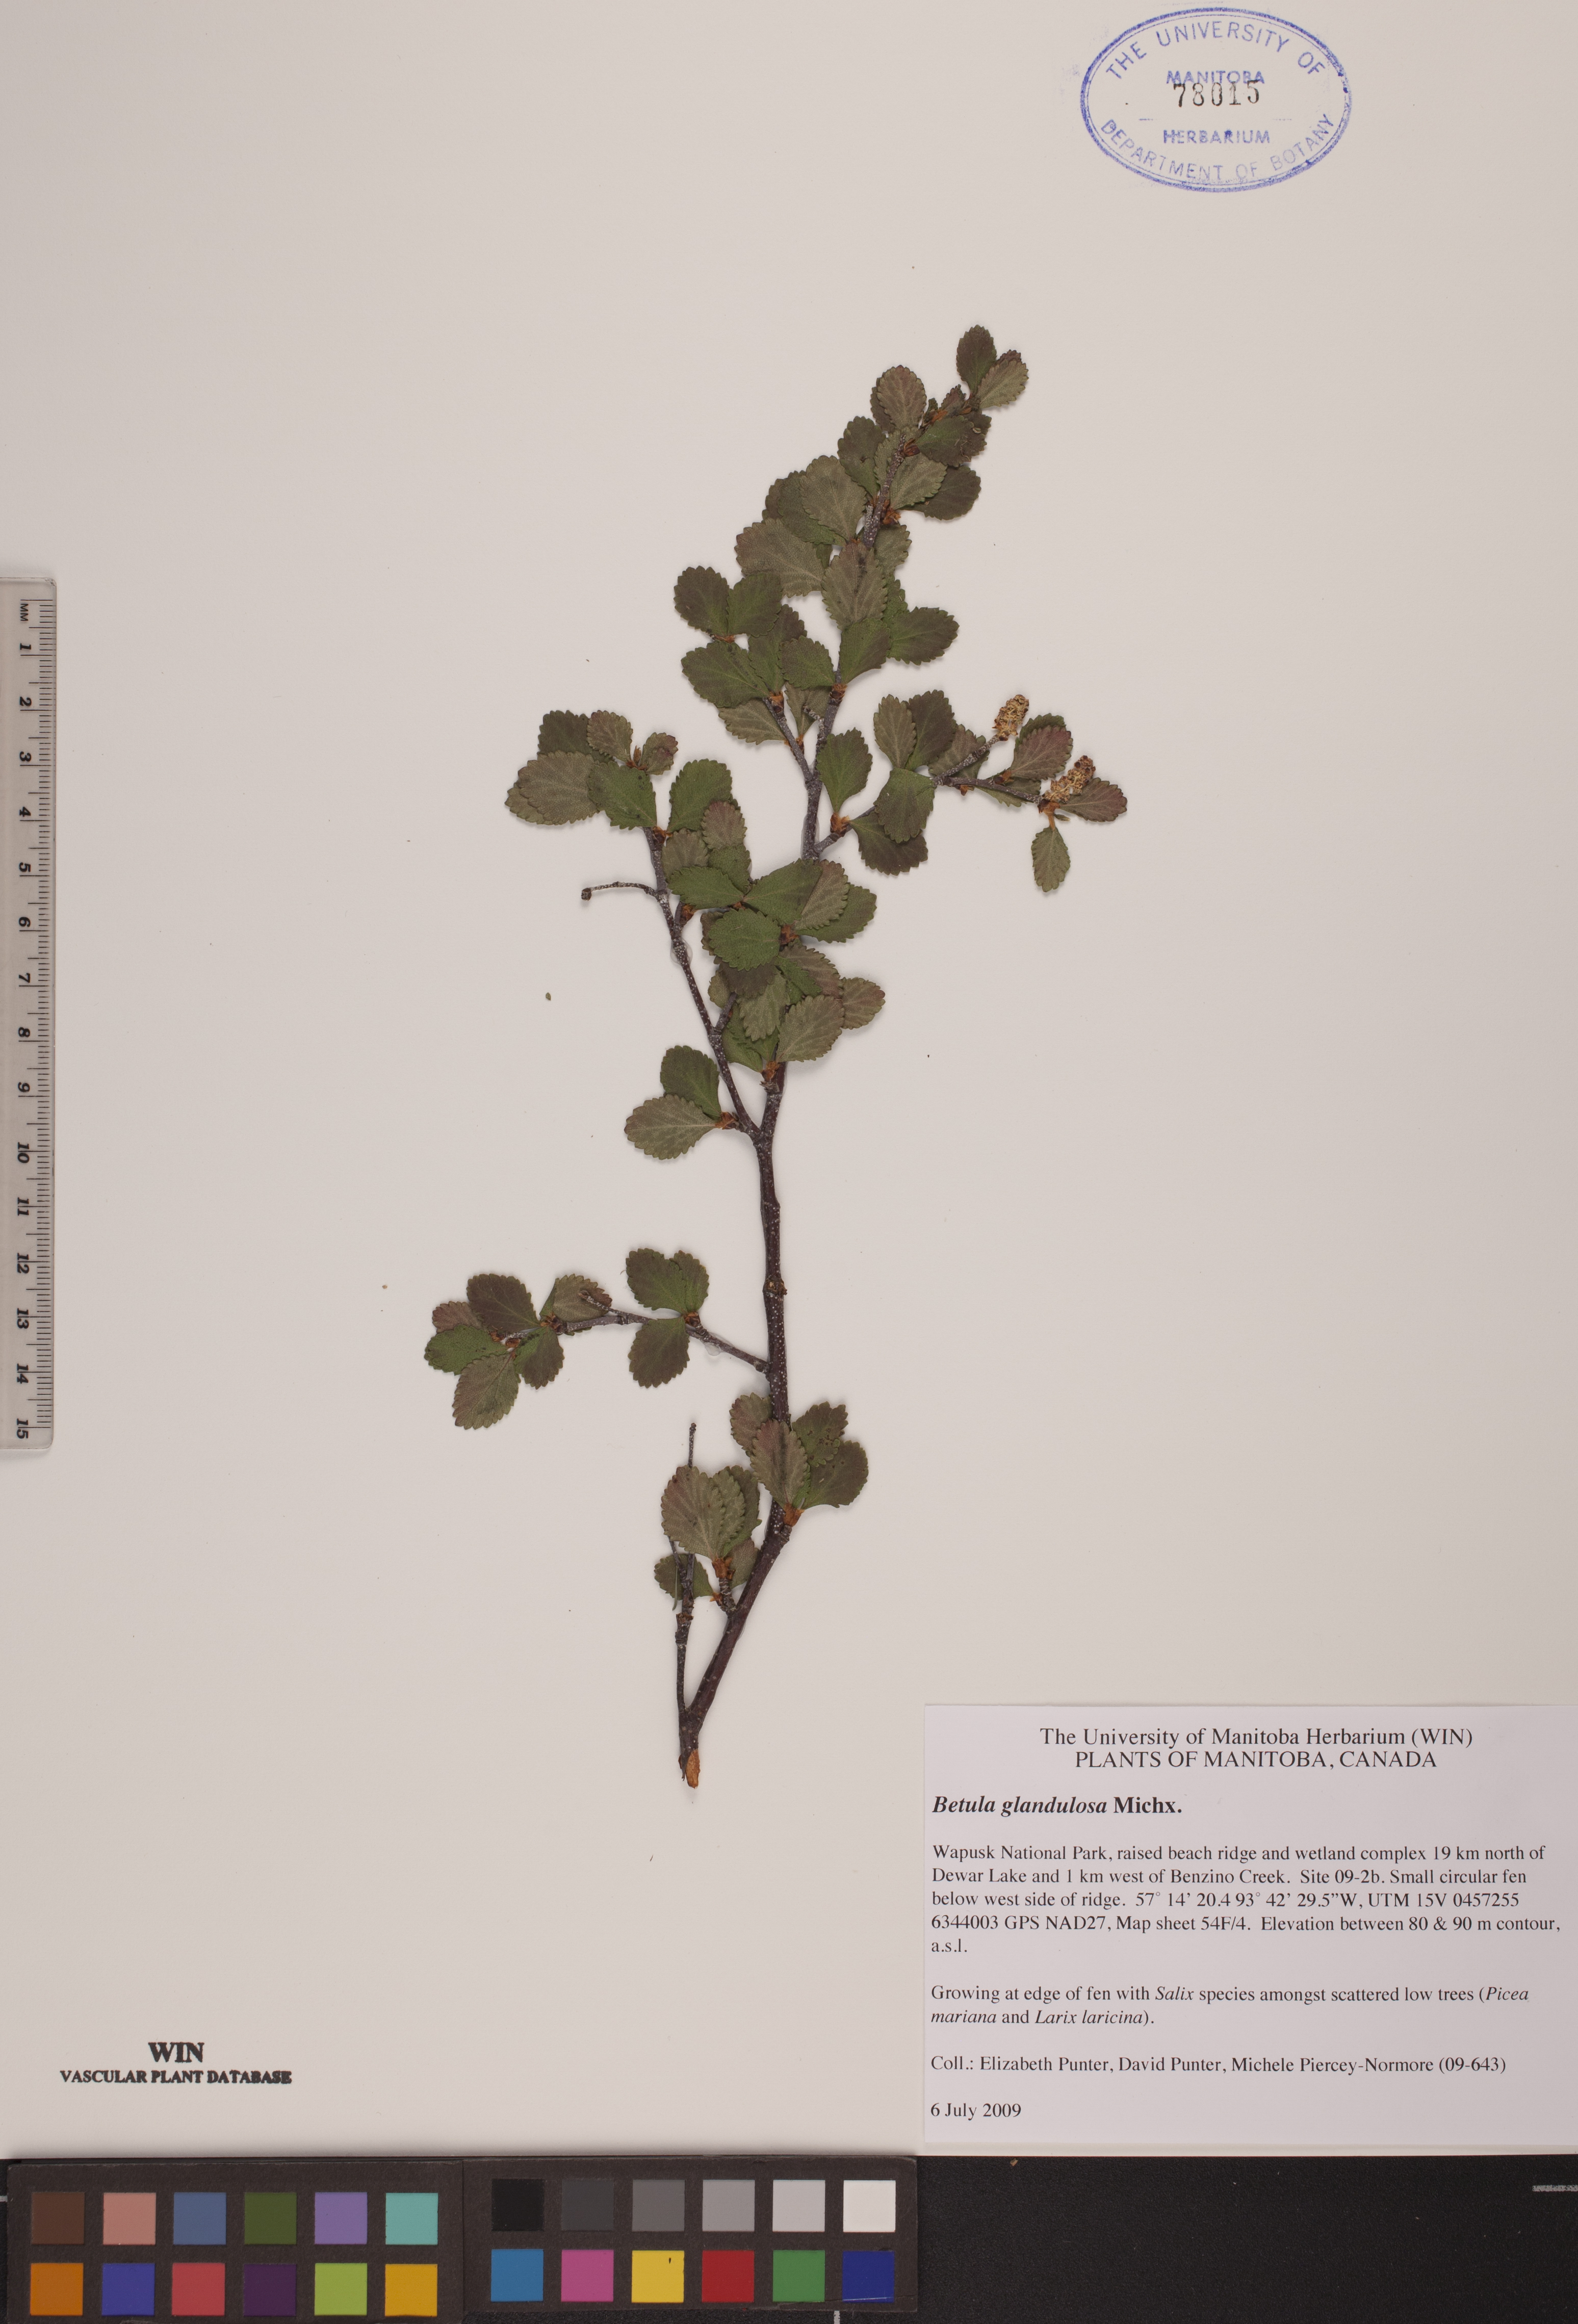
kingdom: Plantae
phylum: Tracheophyta
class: Magnoliopsida
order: Fagales
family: Betulaceae
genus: Betula
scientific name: Betula glandulosa
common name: Dwarf birch
